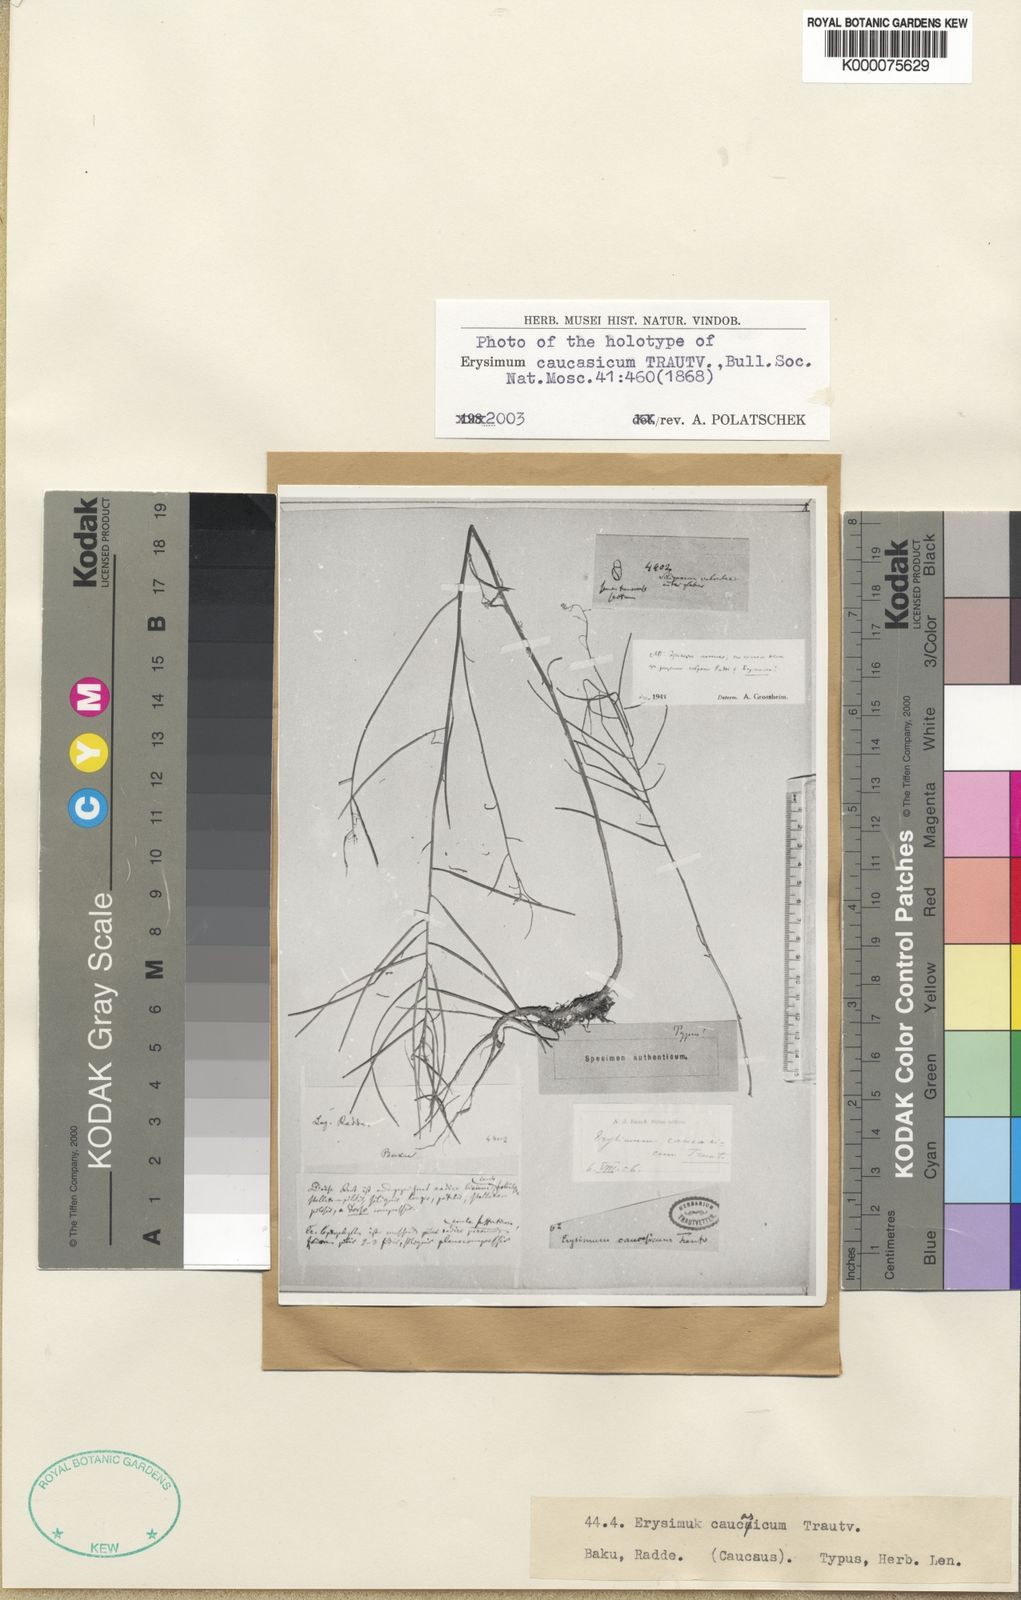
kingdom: Plantae
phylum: Tracheophyta
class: Magnoliopsida
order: Brassicales
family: Brassicaceae
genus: Erysimum
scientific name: Erysimum
